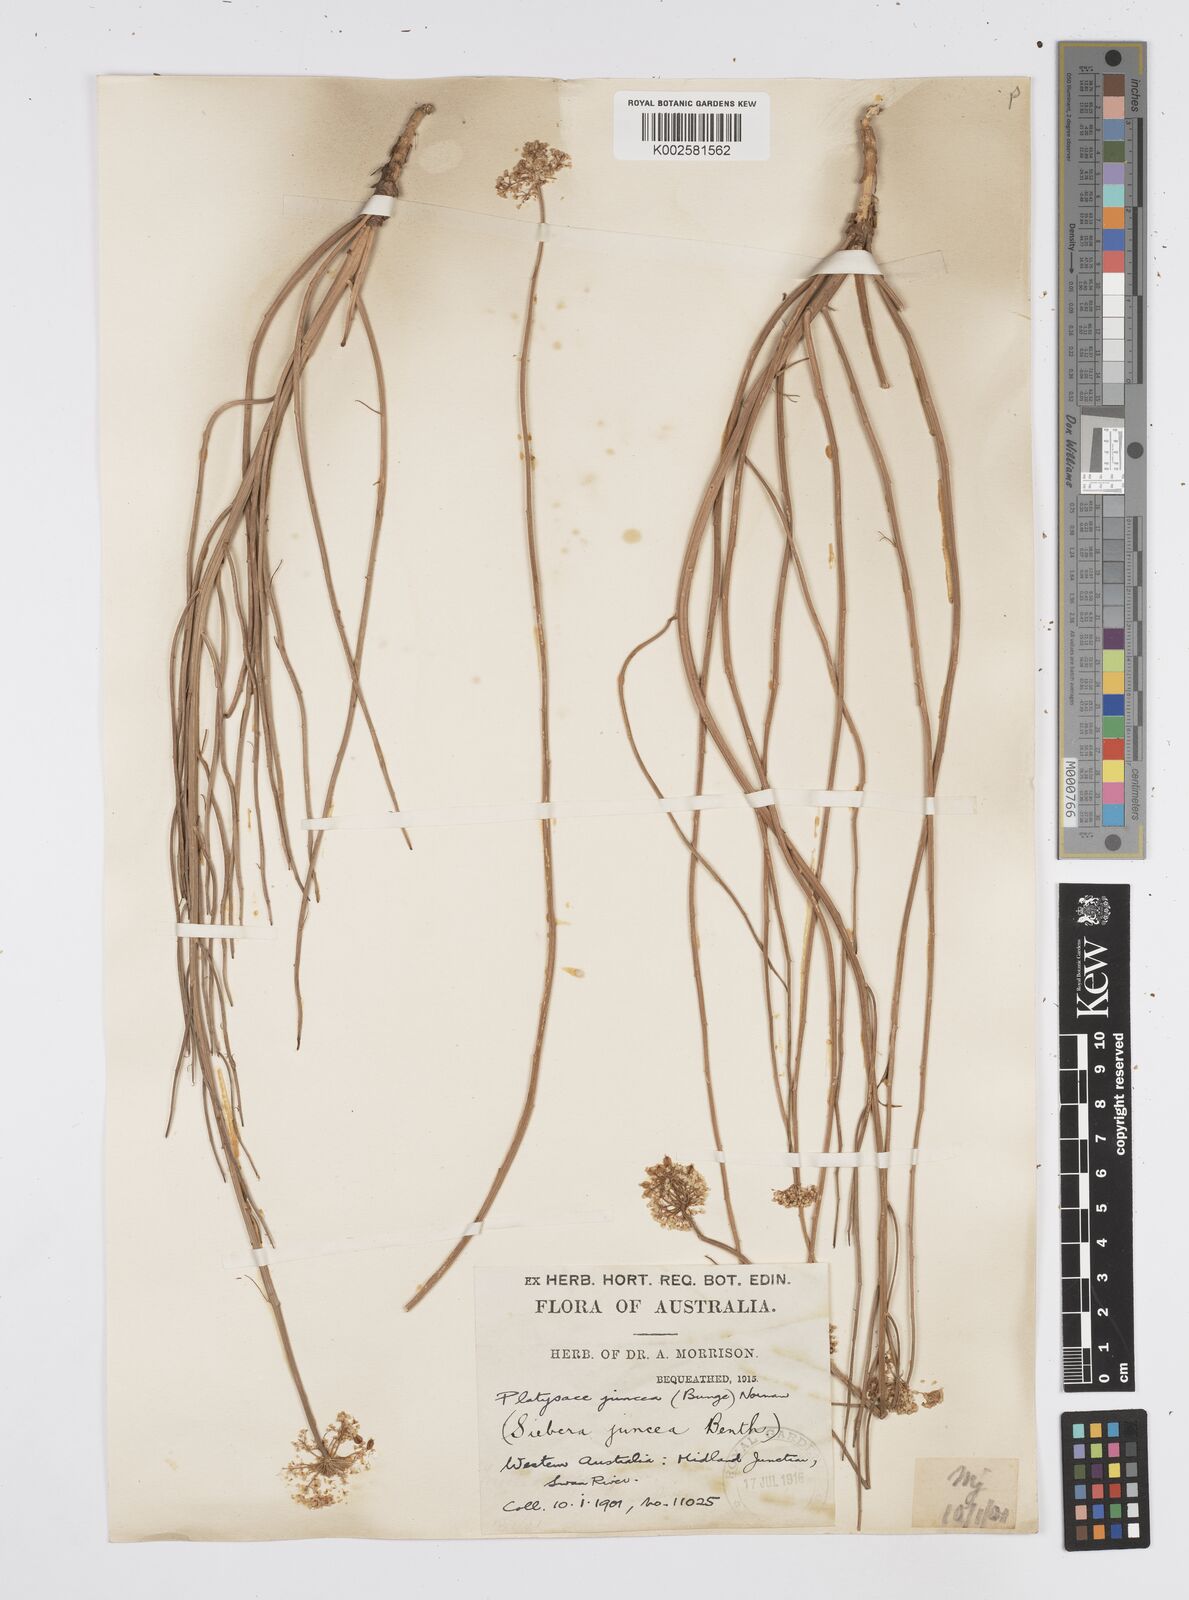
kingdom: Plantae
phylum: Tracheophyta
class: Magnoliopsida
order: Apiales
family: Apiaceae
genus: Platysace
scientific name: Platysace juncea
